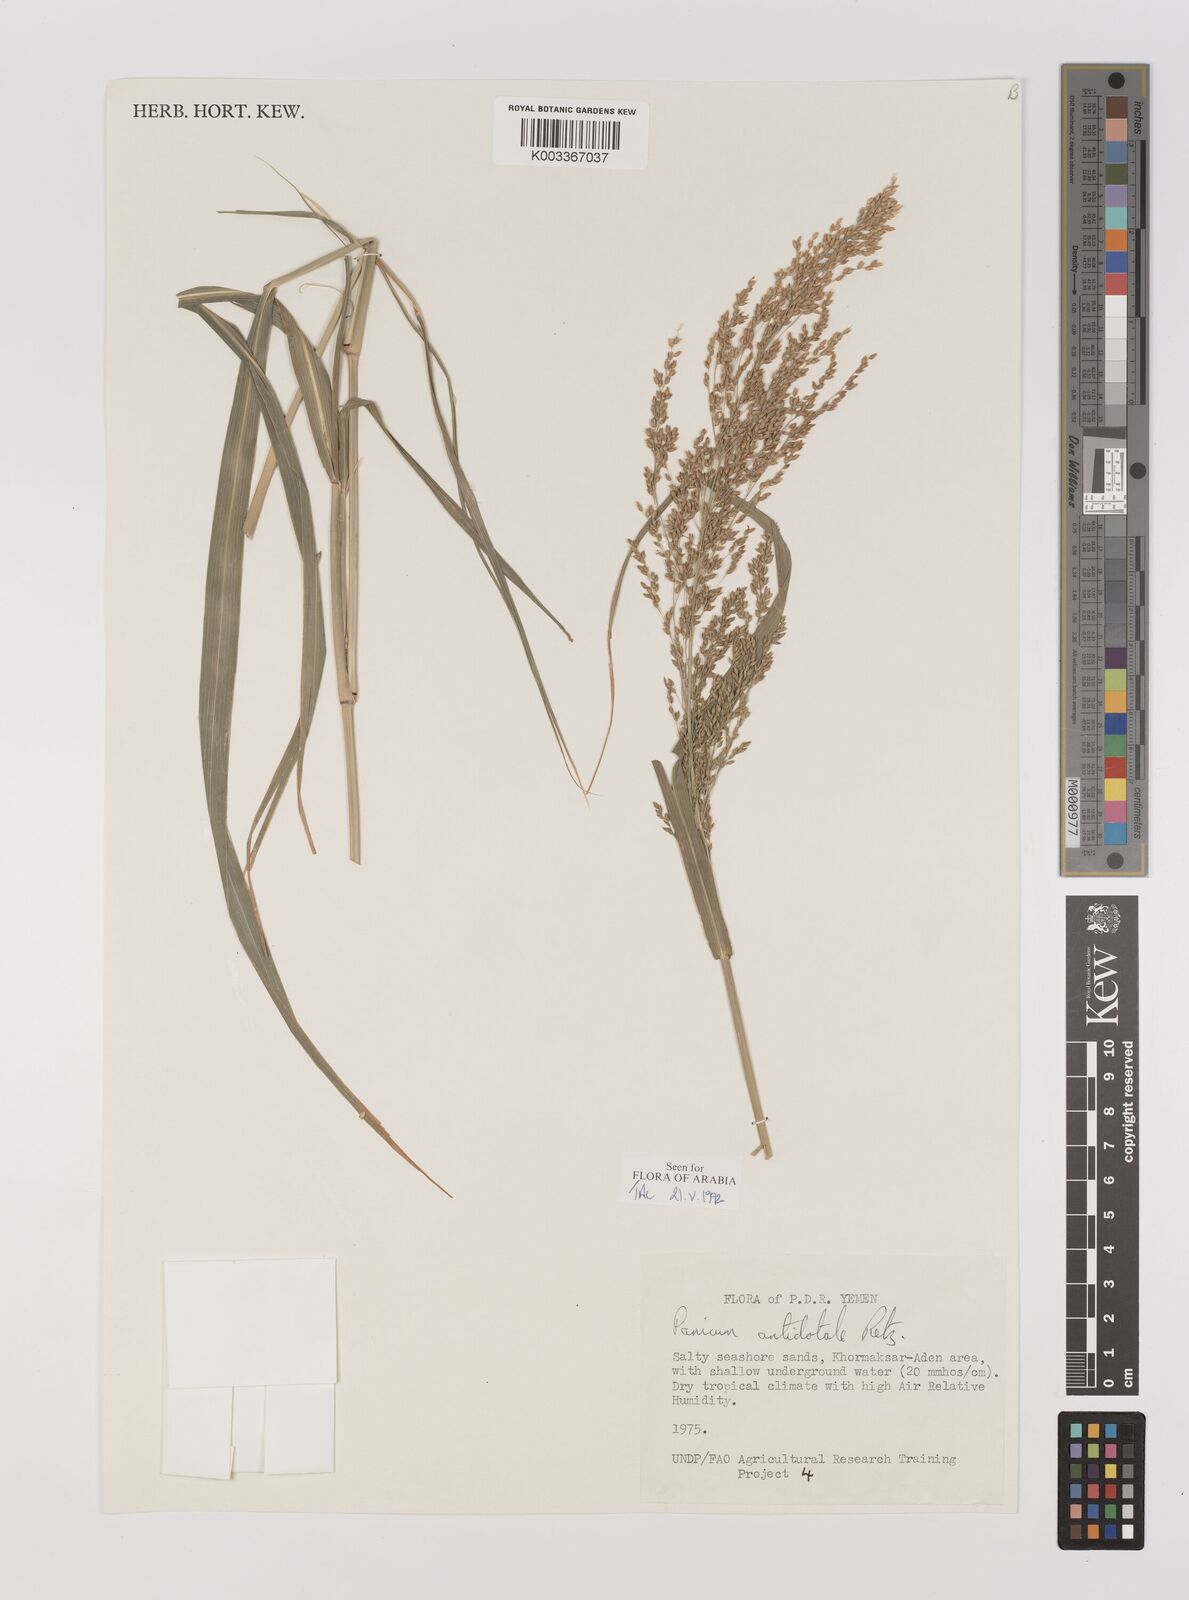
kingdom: Plantae
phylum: Tracheophyta
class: Liliopsida
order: Poales
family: Poaceae
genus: Panicum
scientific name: Panicum antidotale
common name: Blue panicum
